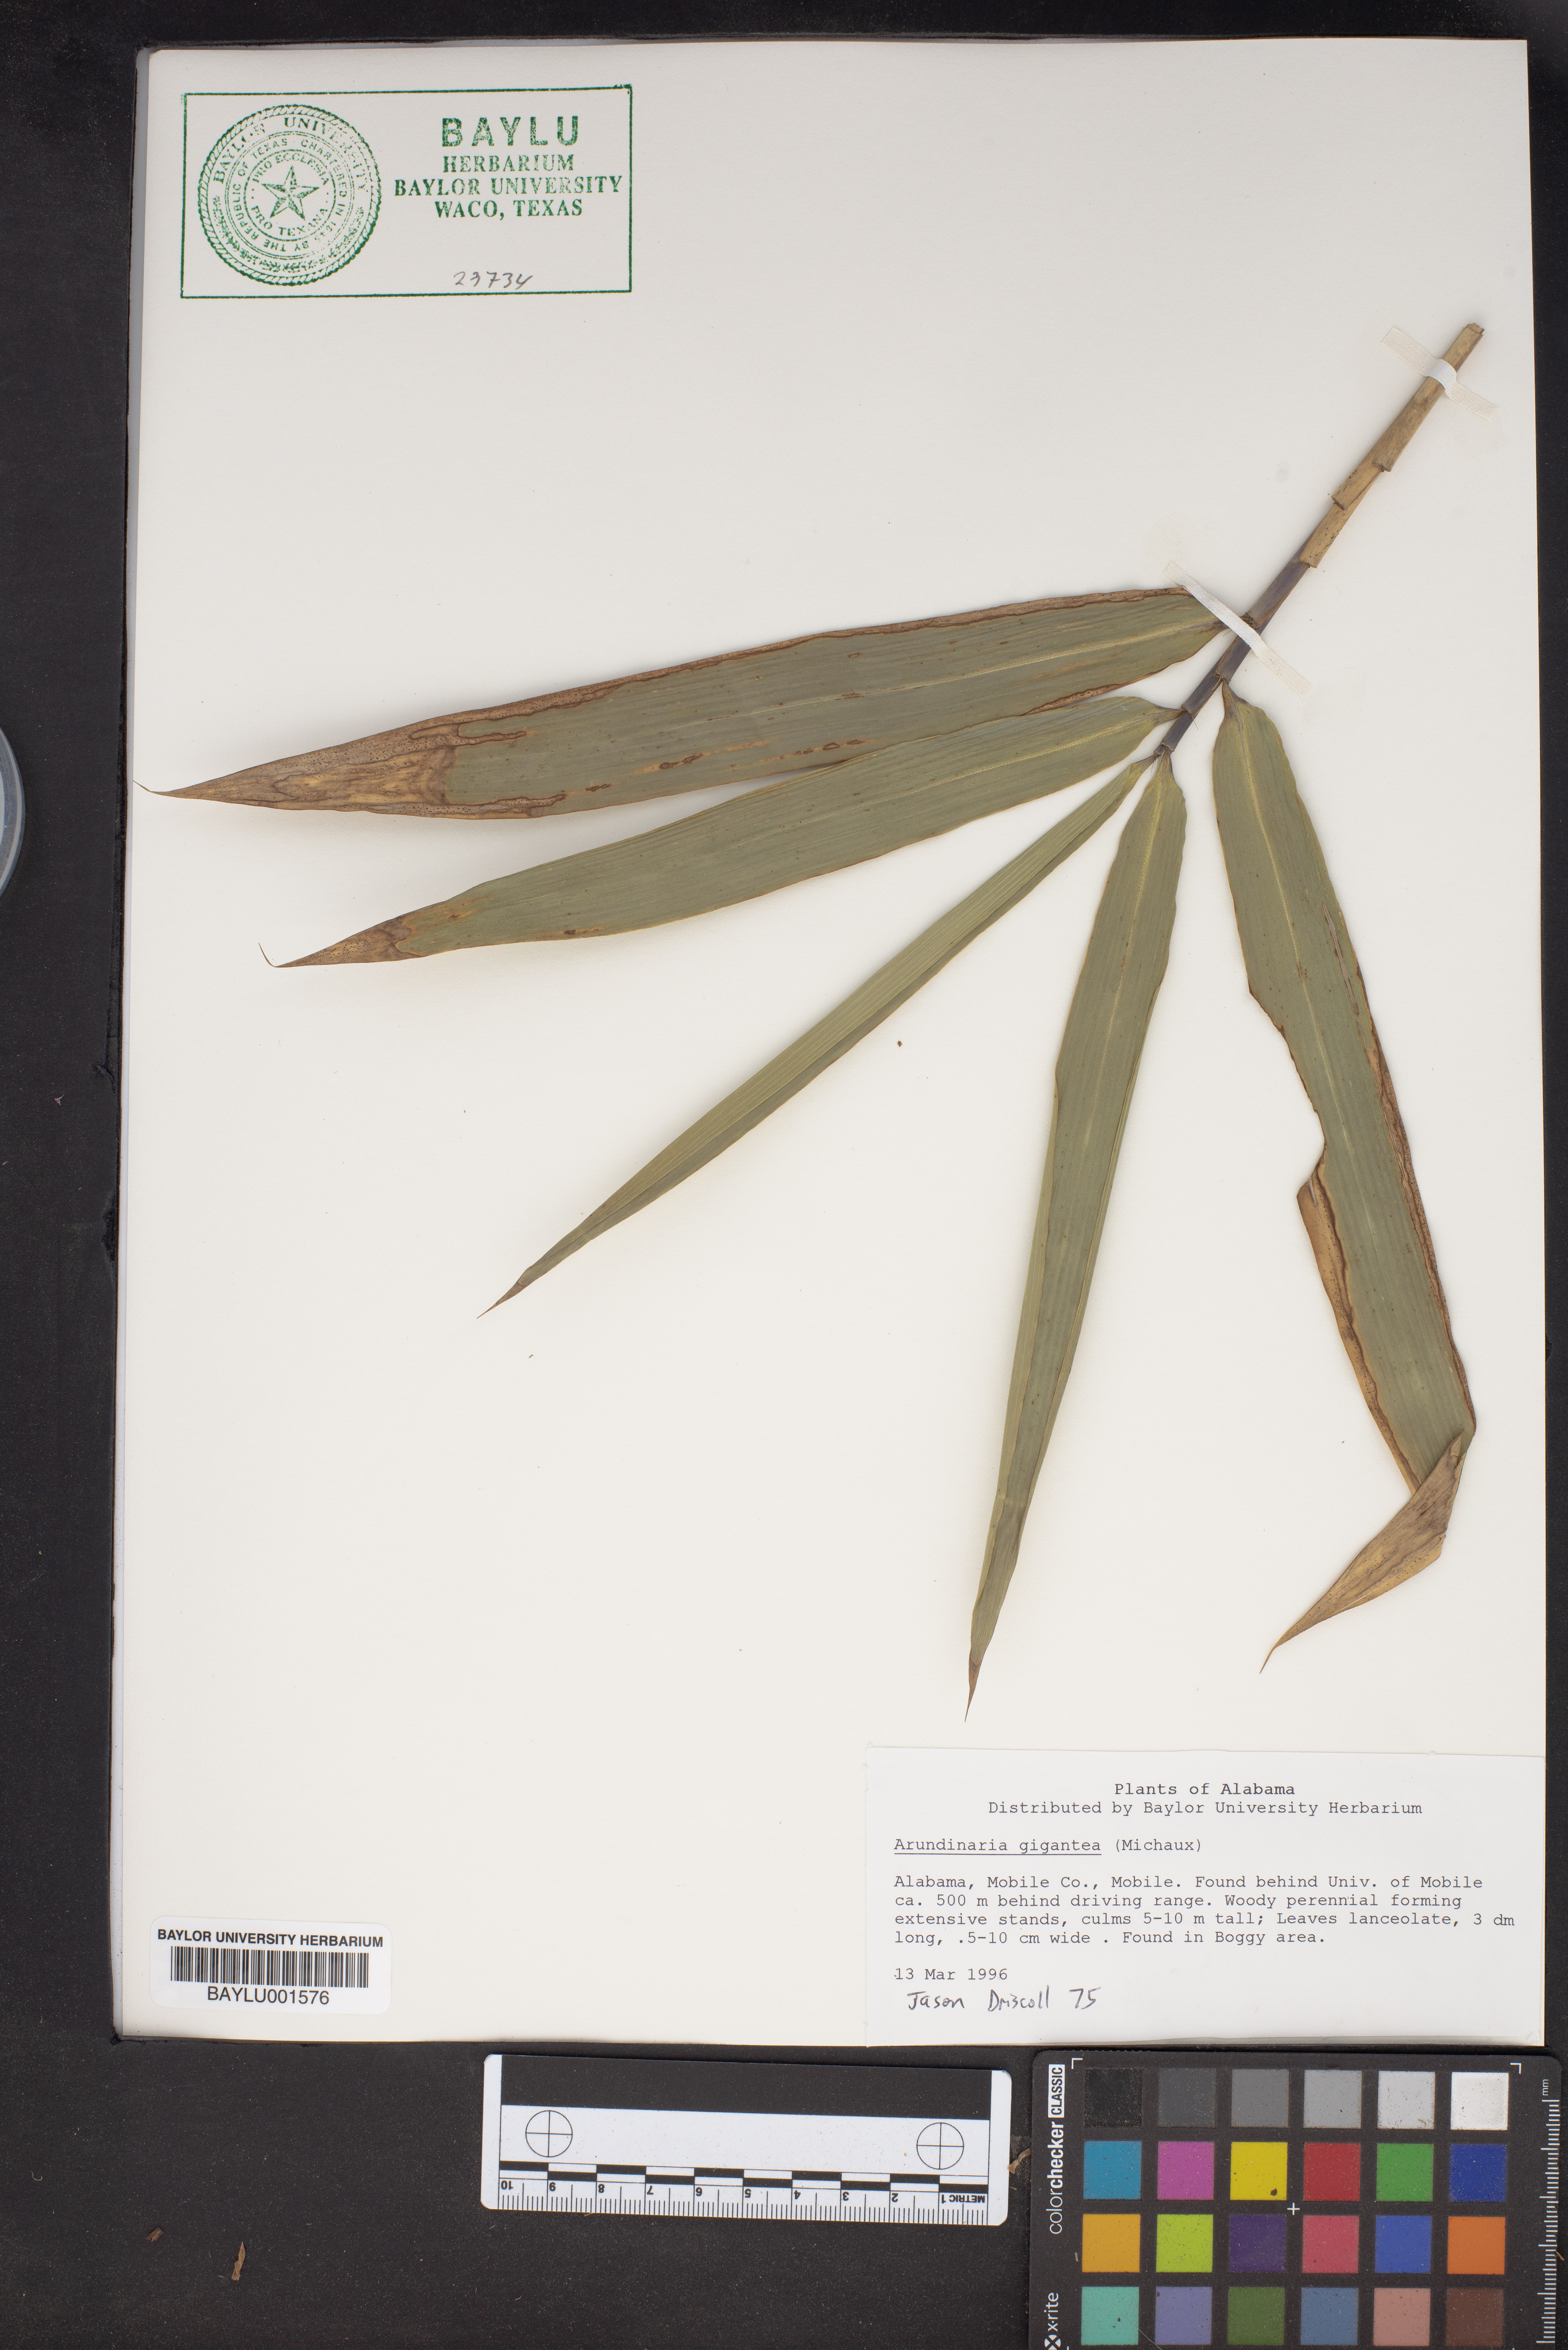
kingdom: Plantae
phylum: Tracheophyta
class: Liliopsida
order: Poales
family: Poaceae
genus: Arundinaria
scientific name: Arundinaria gigantea
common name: Giant cane
